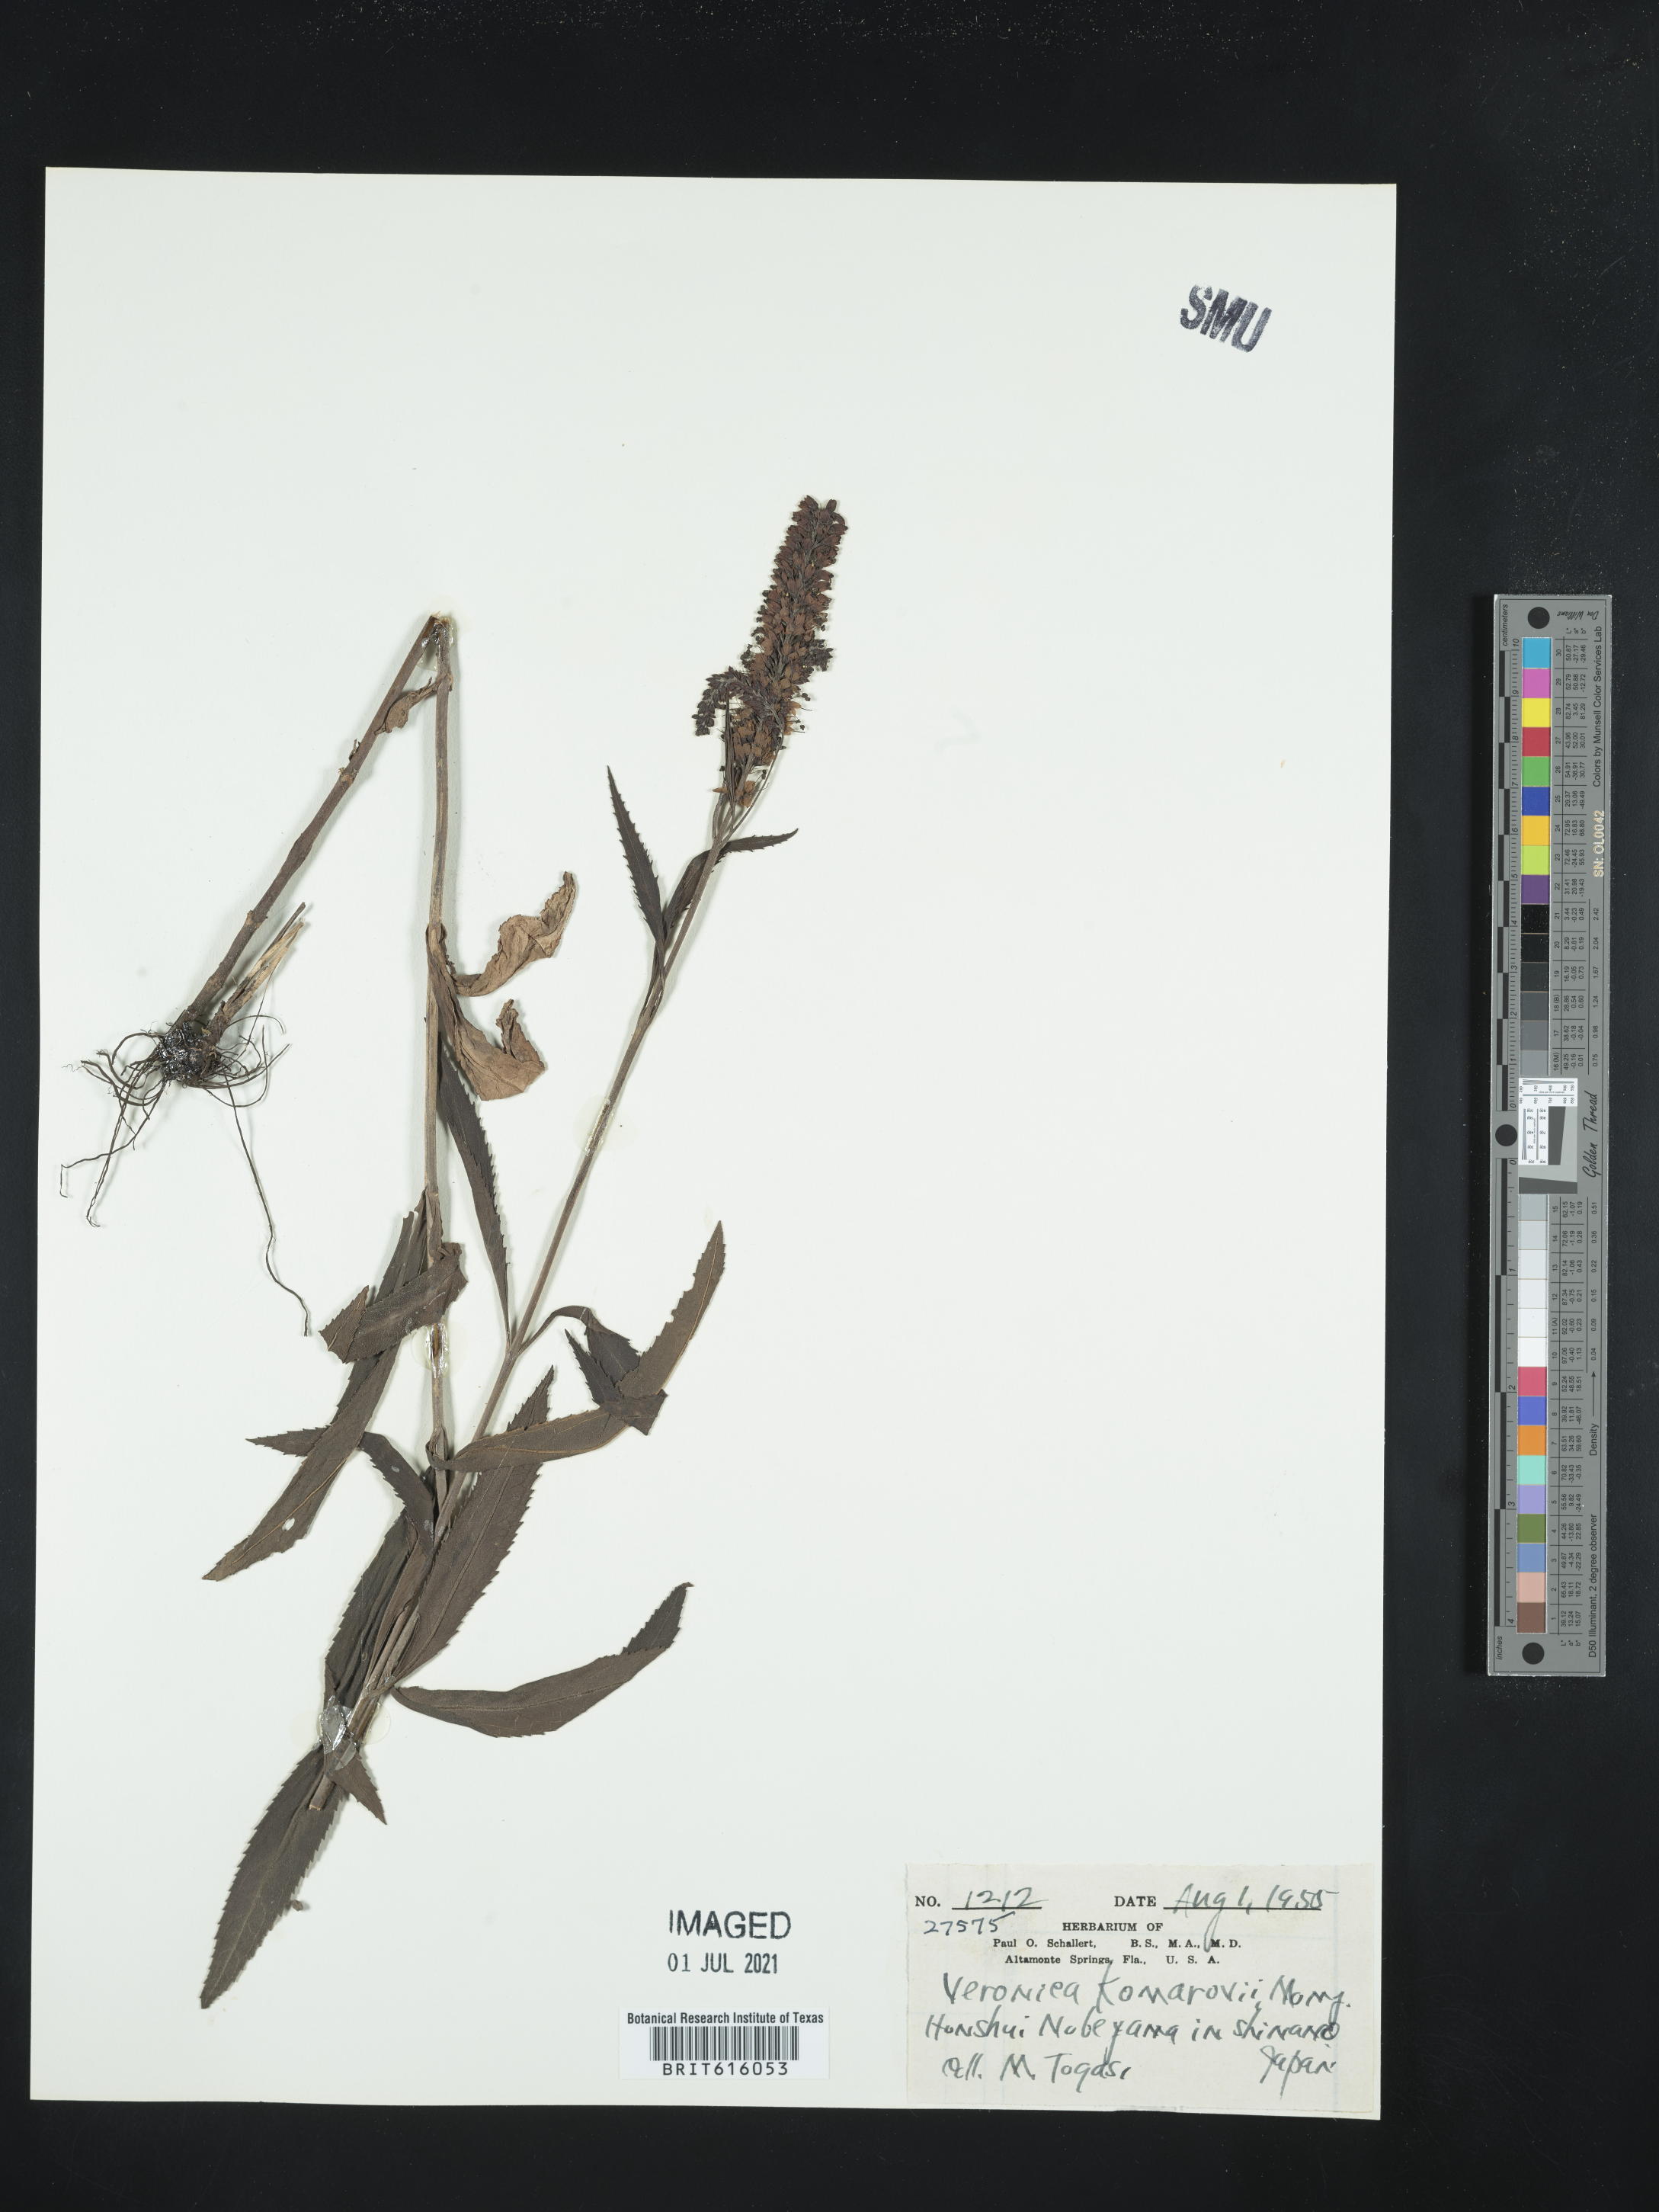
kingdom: Plantae
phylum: Tracheophyta
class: Magnoliopsida
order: Lamiales
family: Plantaginaceae
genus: Veronica
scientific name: Veronica rotunda
